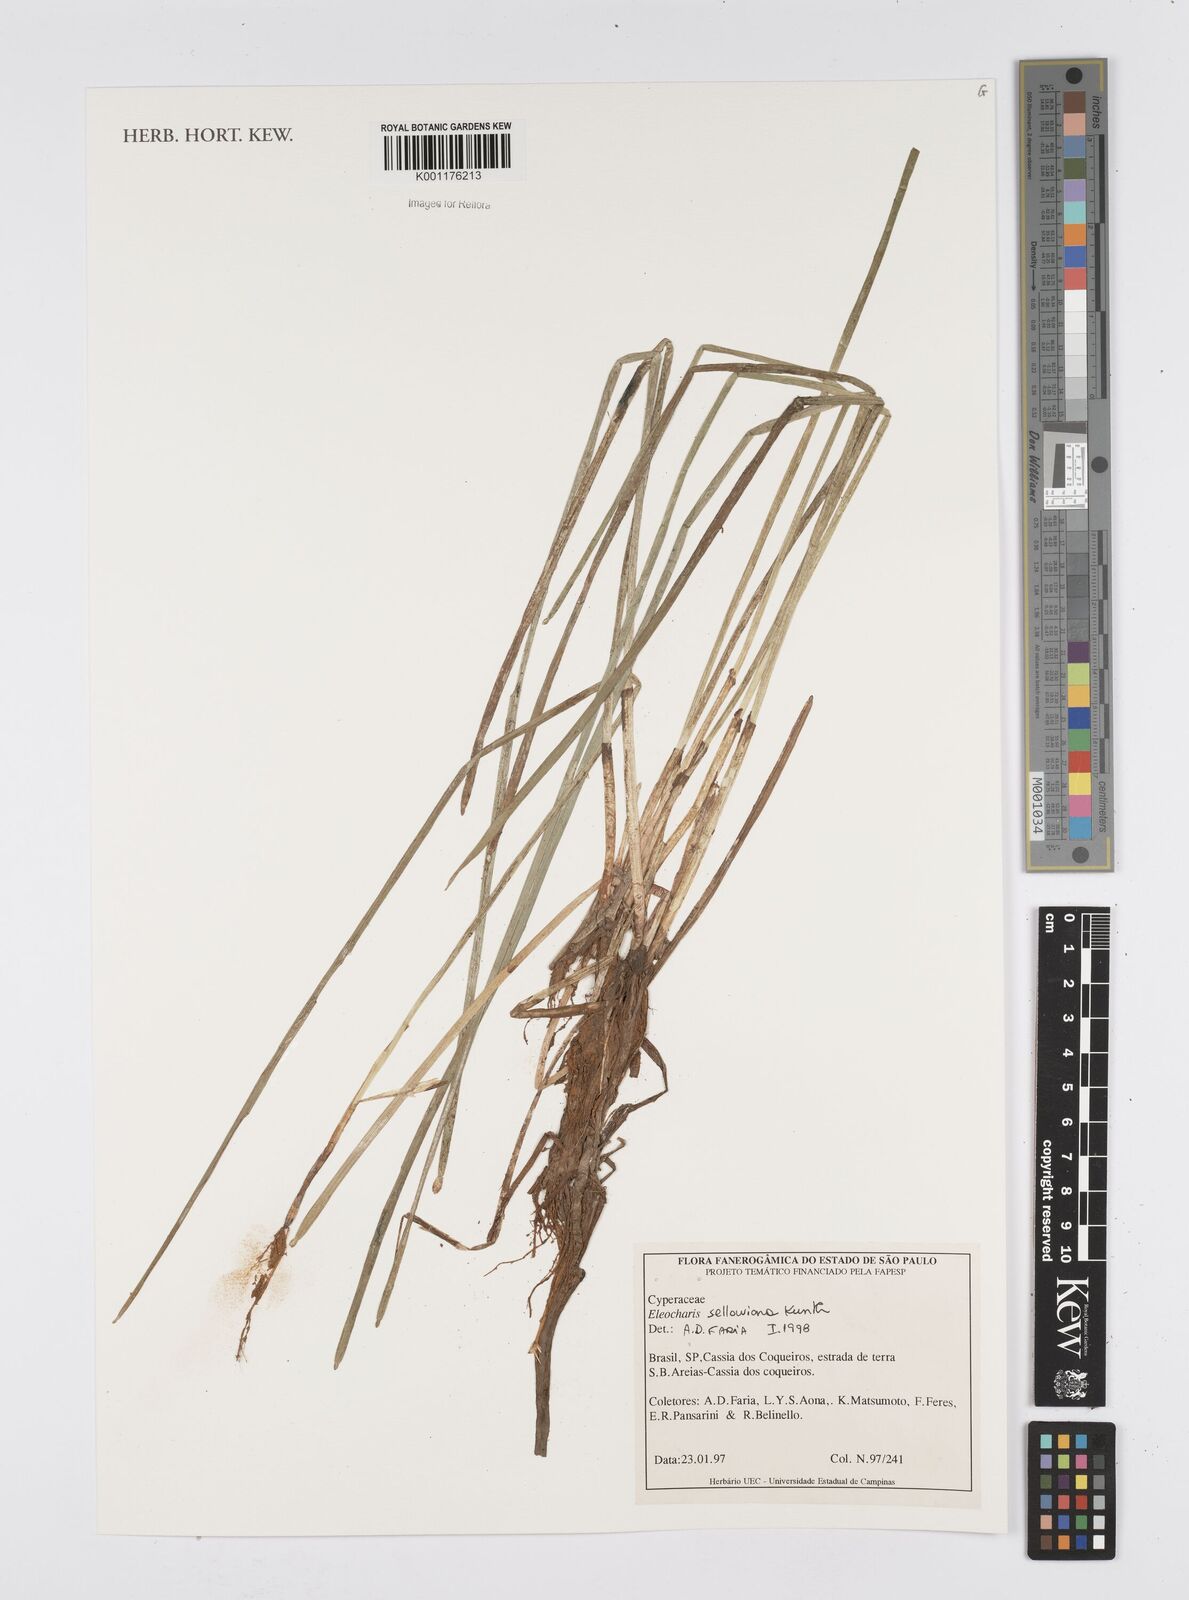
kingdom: Plantae
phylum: Tracheophyta
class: Liliopsida
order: Poales
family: Cyperaceae
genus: Eleocharis
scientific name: Eleocharis sellowiana
